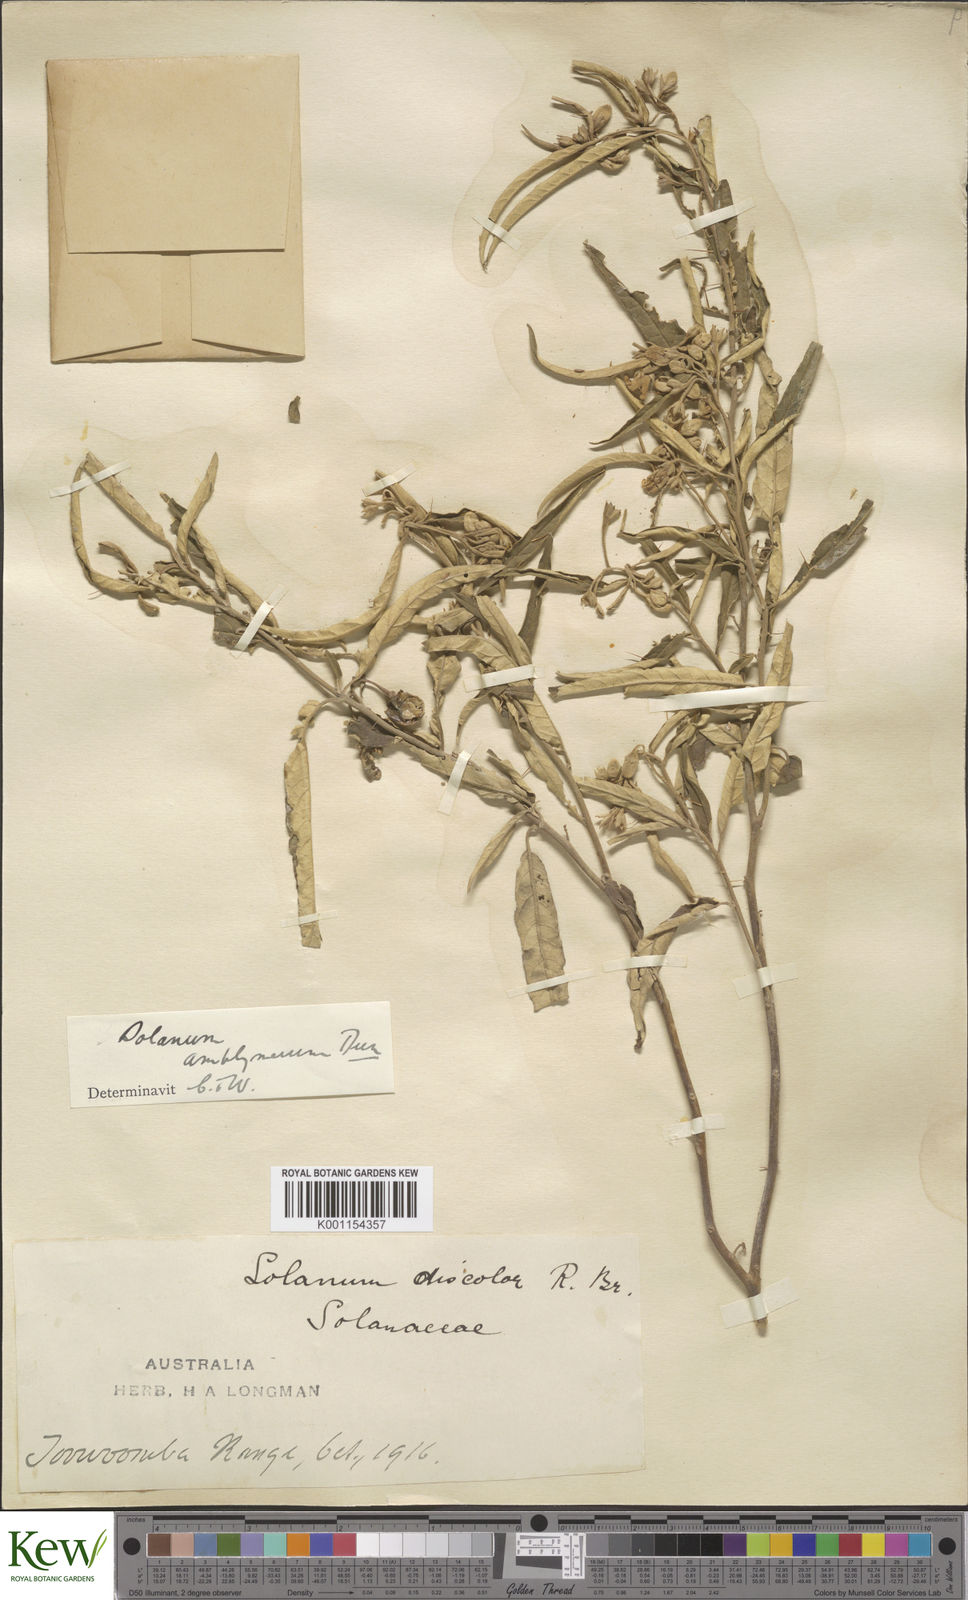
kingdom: Plantae
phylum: Tracheophyta
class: Magnoliopsida
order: Solanales
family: Solanaceae
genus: Solanum
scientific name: Solanum elegans
